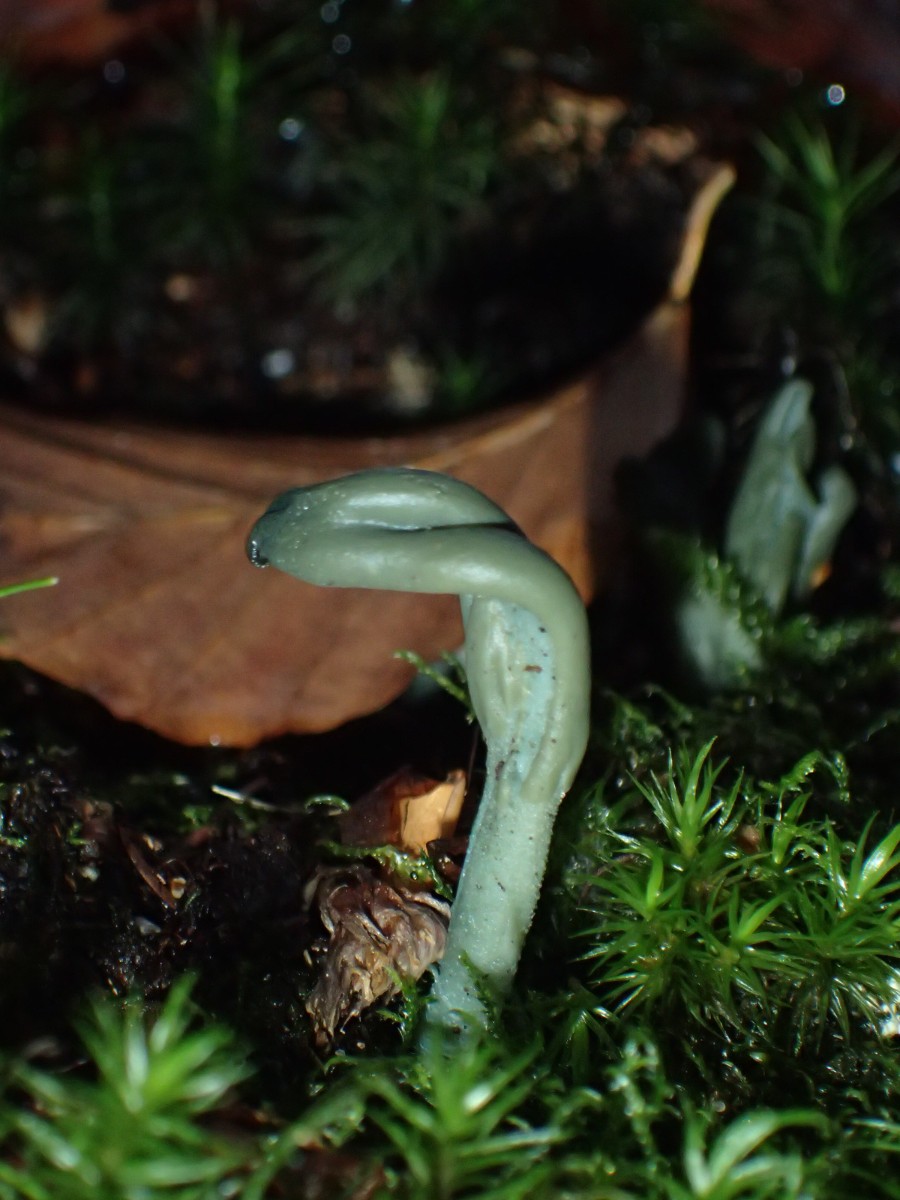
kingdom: Fungi
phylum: Ascomycota
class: Leotiomycetes
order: Leotiales
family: Leotiaceae
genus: Microglossum
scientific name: Microglossum griseoviride
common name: grågrøn farvetunge
